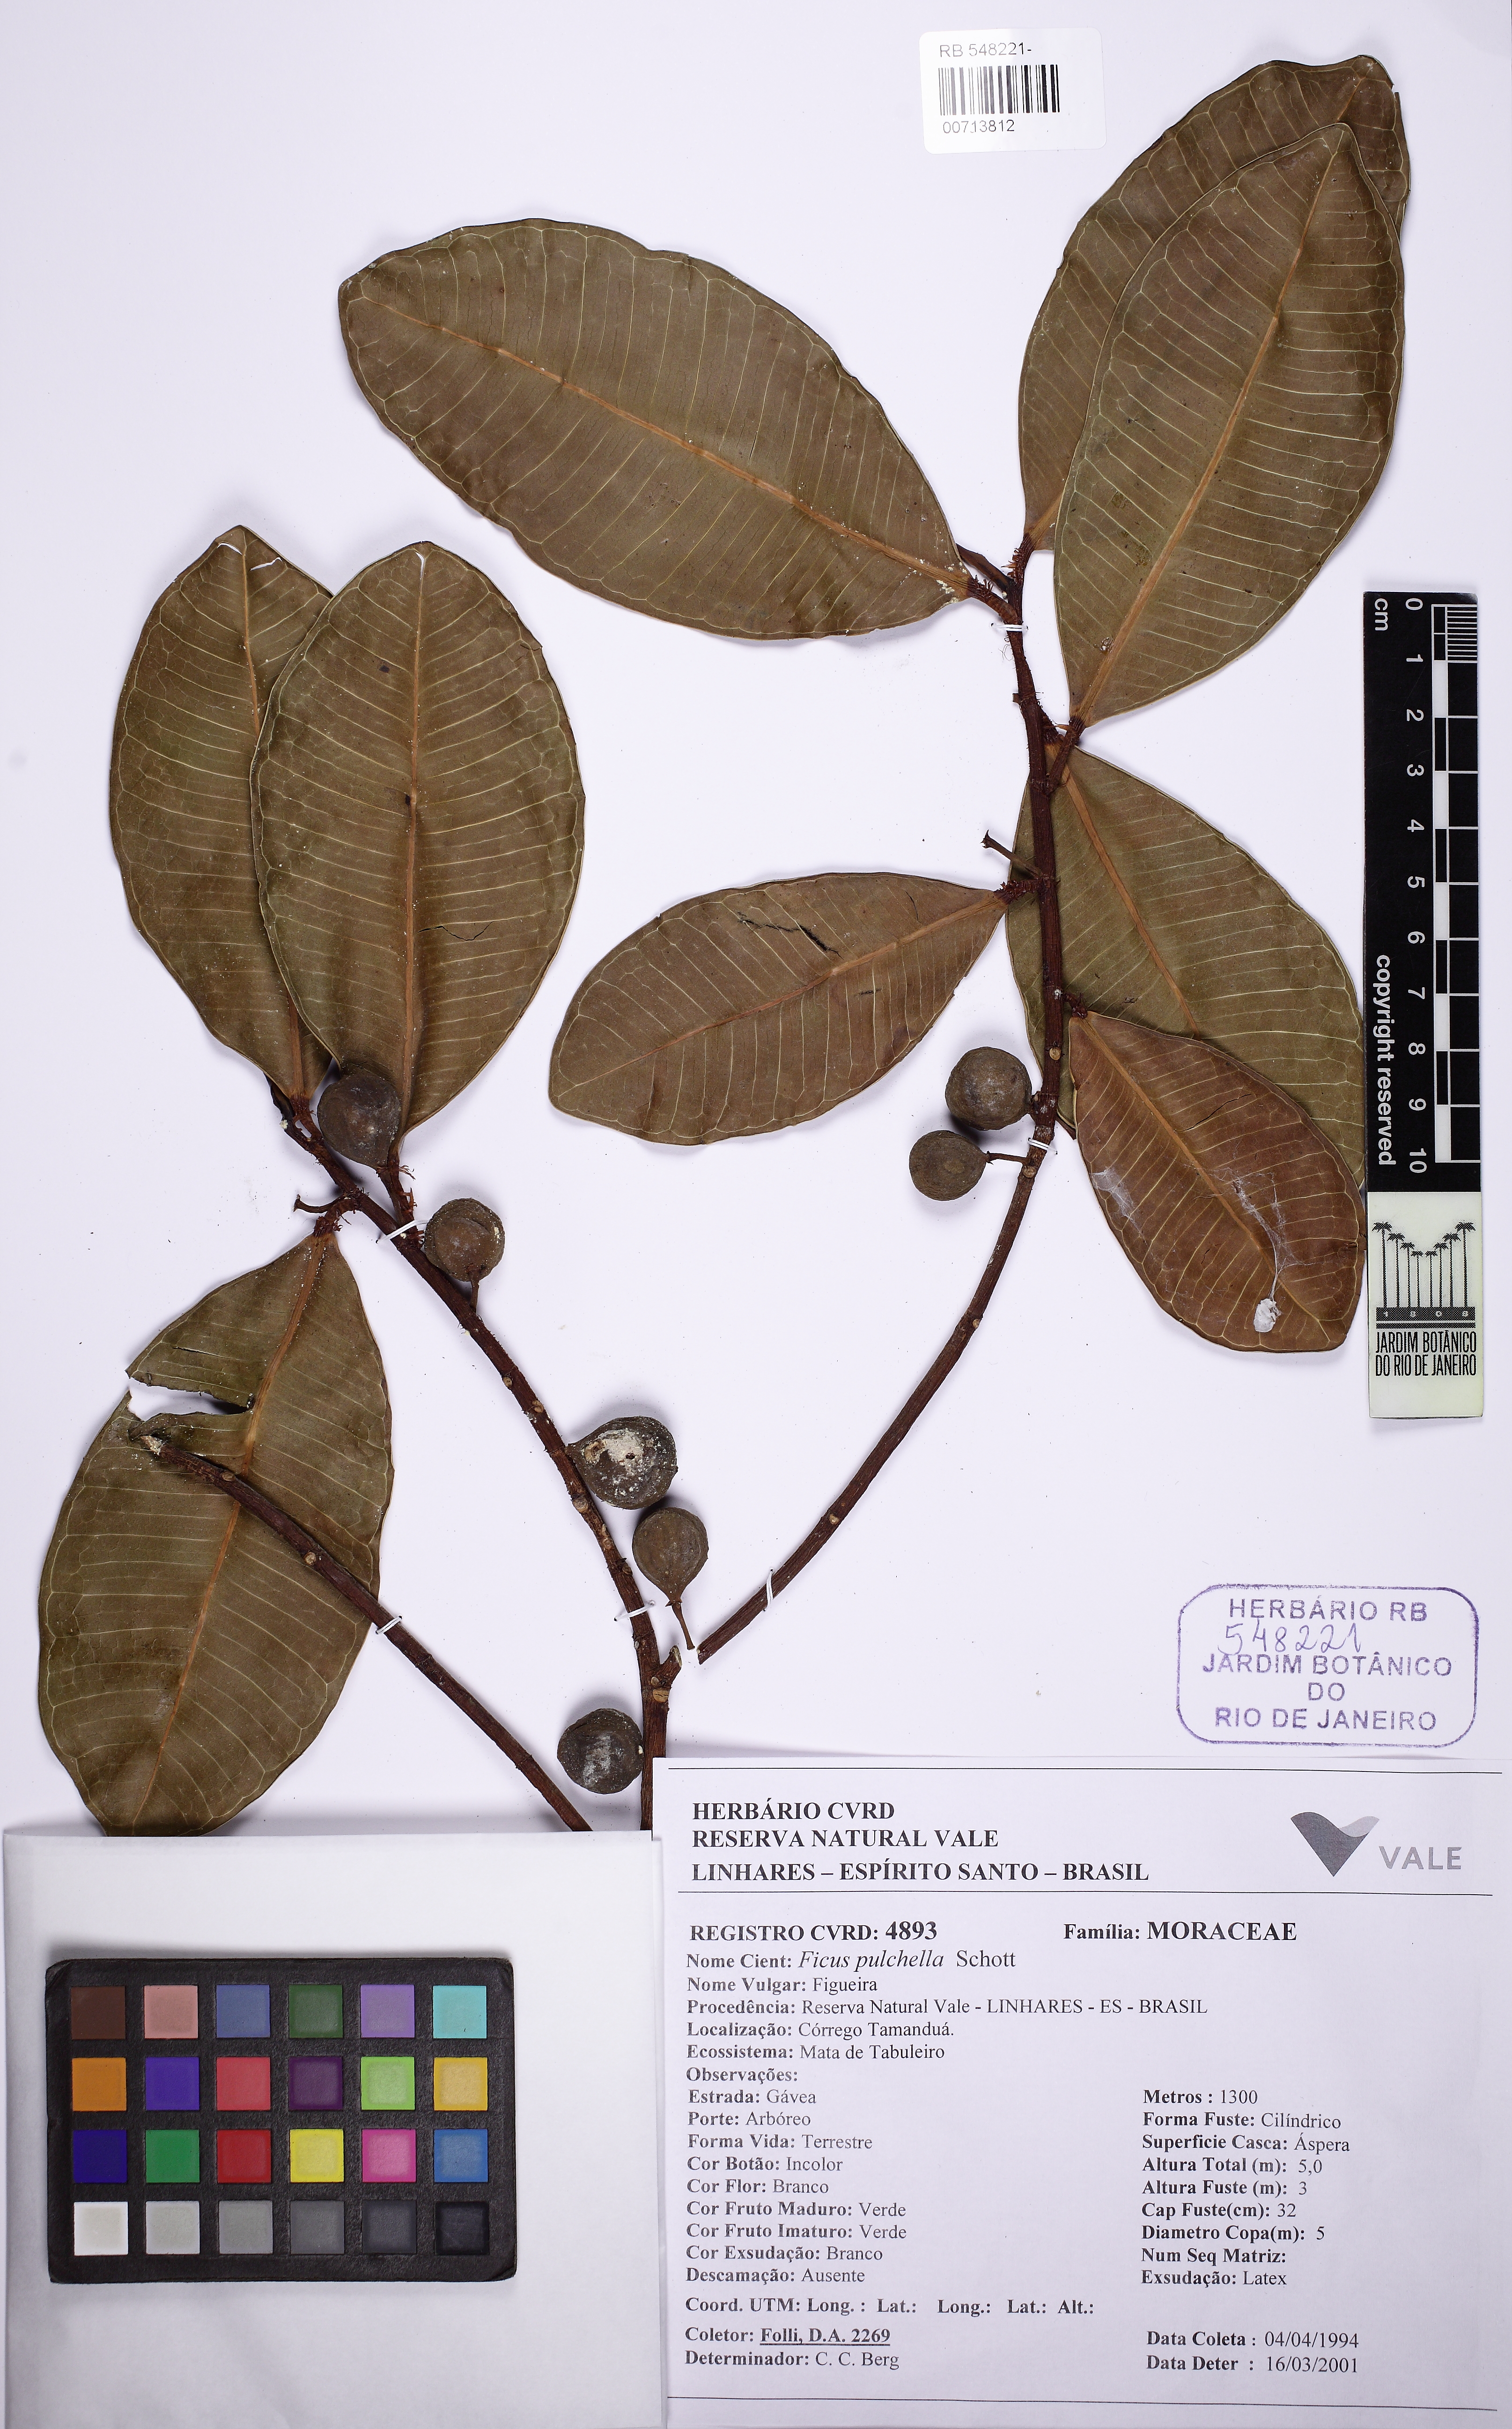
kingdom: Plantae
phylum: Tracheophyta
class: Magnoliopsida
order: Rosales
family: Moraceae
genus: Ficus
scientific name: Ficus pulchella
